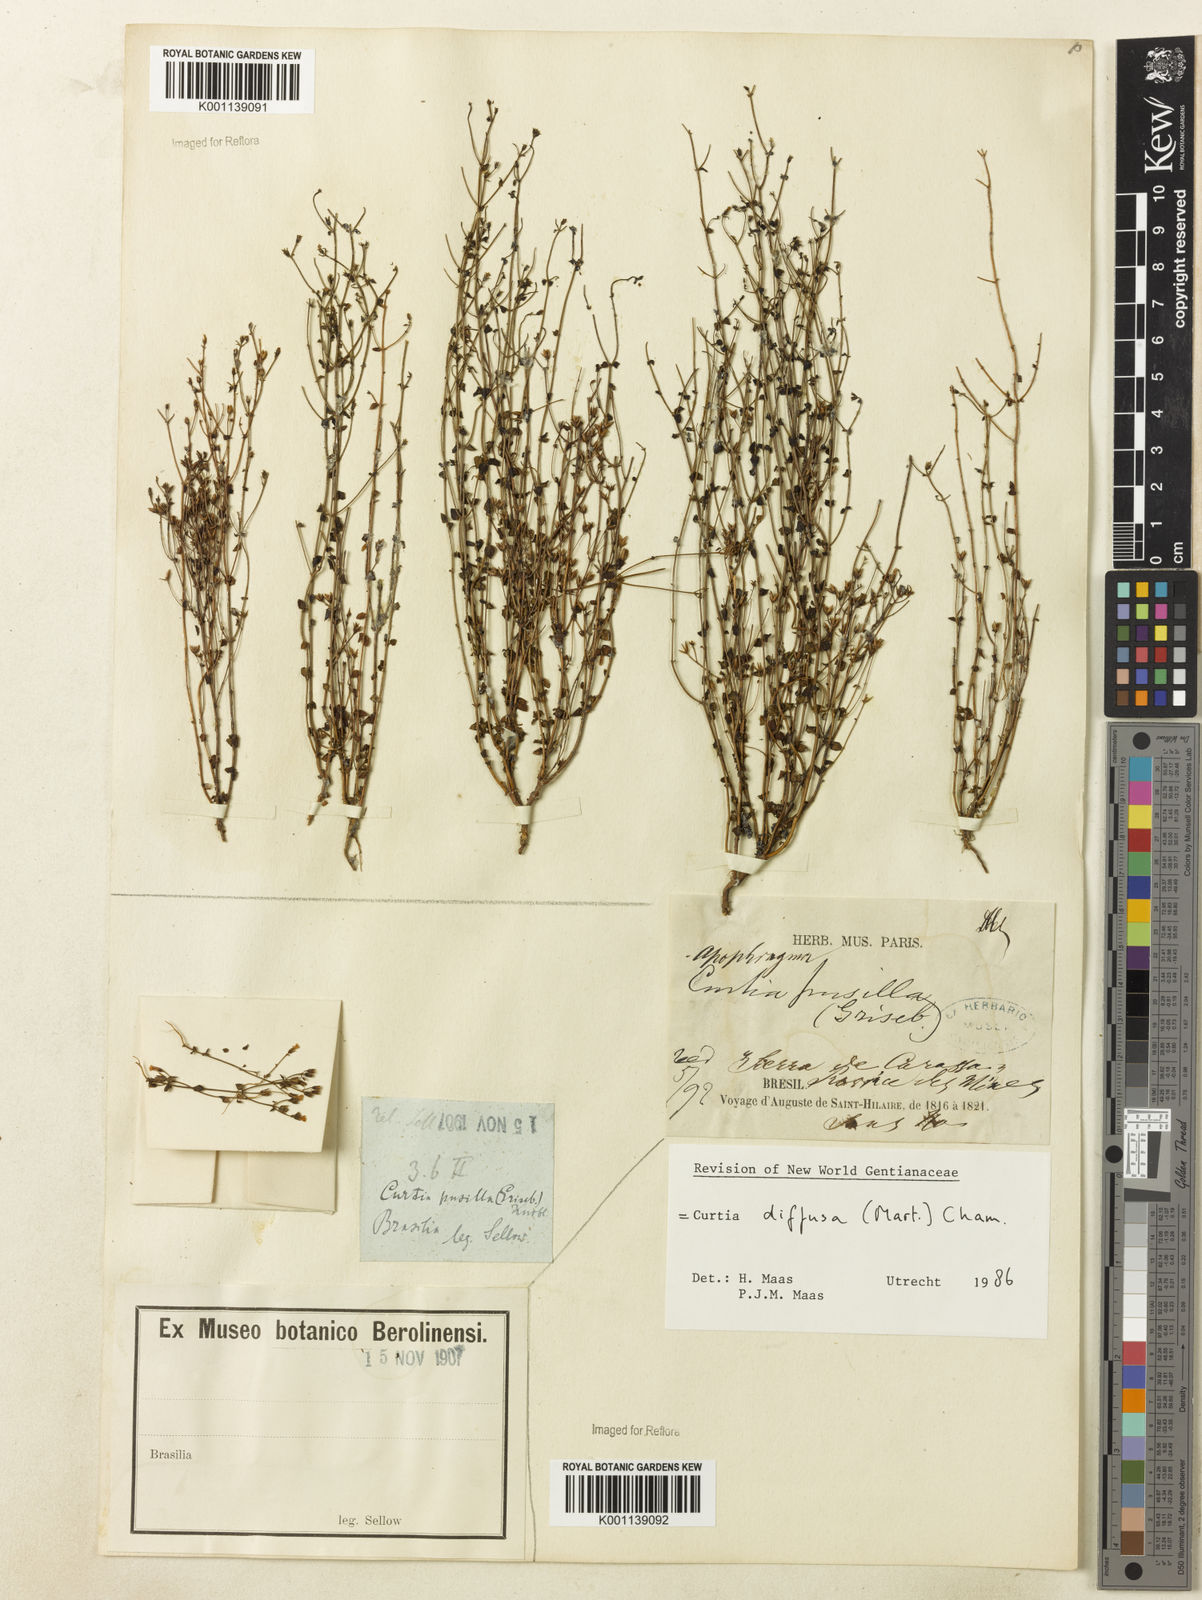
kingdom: Plantae
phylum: Tracheophyta
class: Magnoliopsida
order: Gentianales
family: Gentianaceae
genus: Curtia
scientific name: Curtia diffusa
